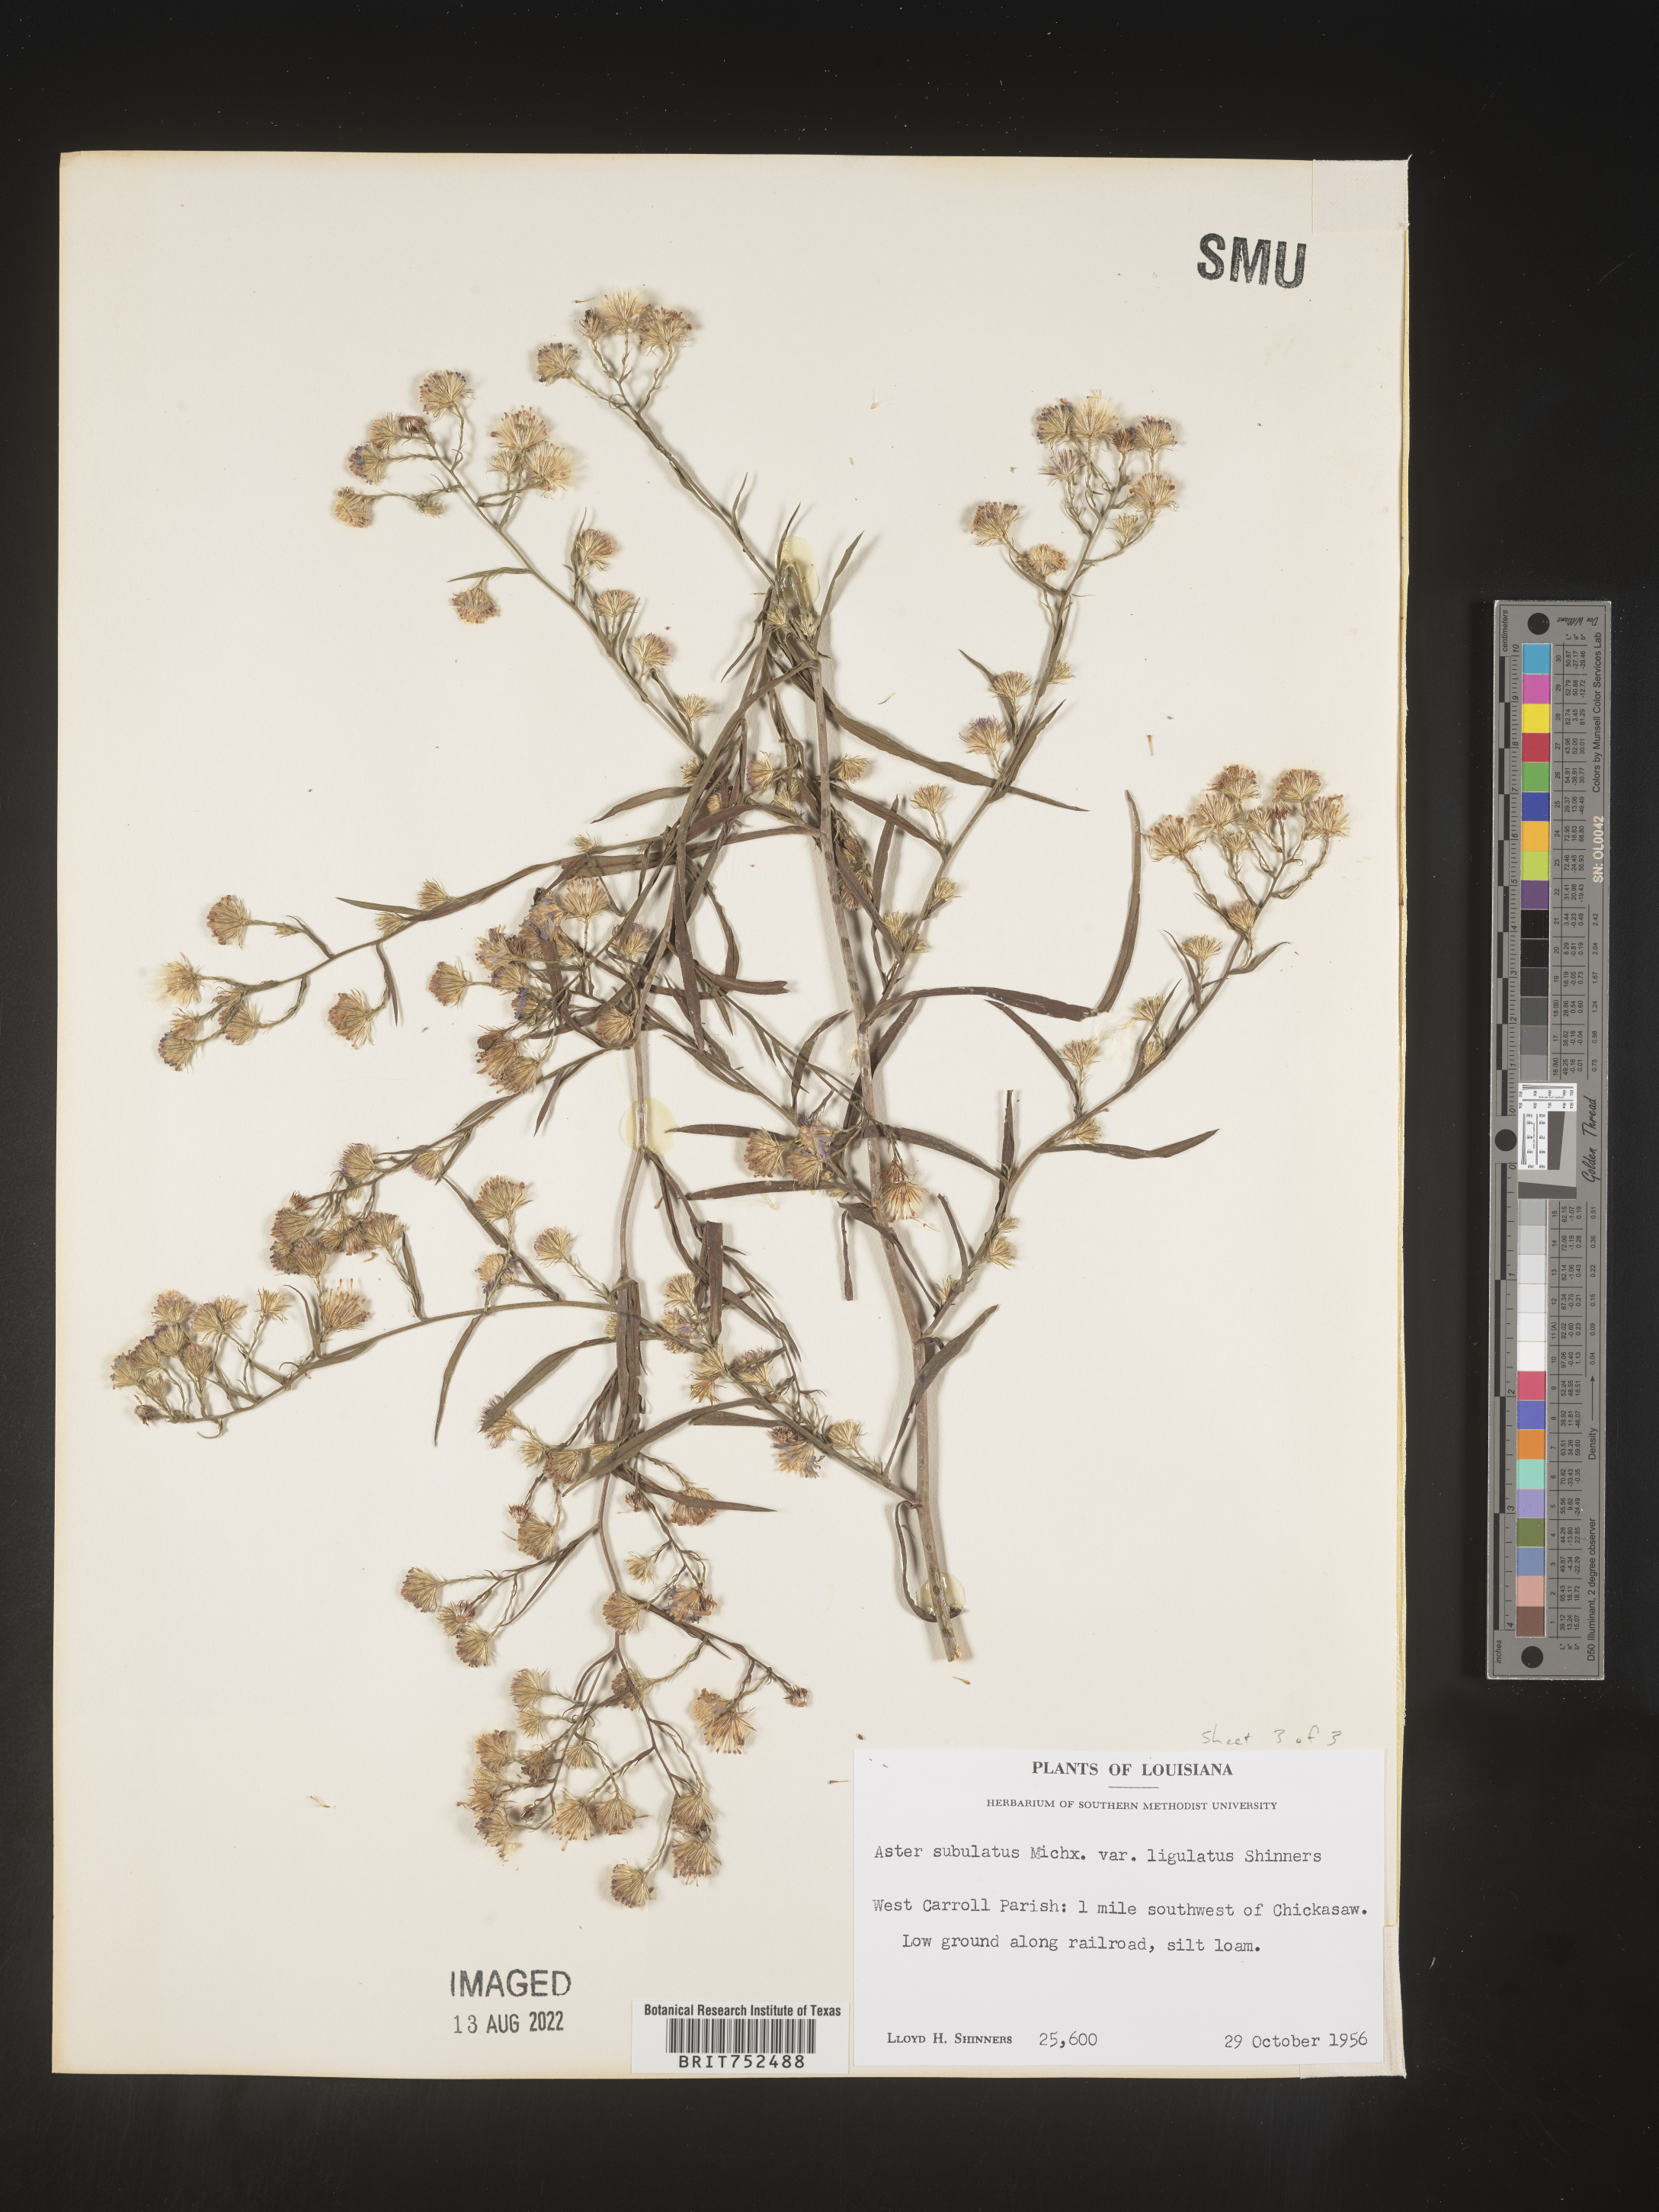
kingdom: Plantae
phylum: Tracheophyta
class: Magnoliopsida
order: Asterales
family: Asteraceae
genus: Symphyotrichum
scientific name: Symphyotrichum divaricatum
